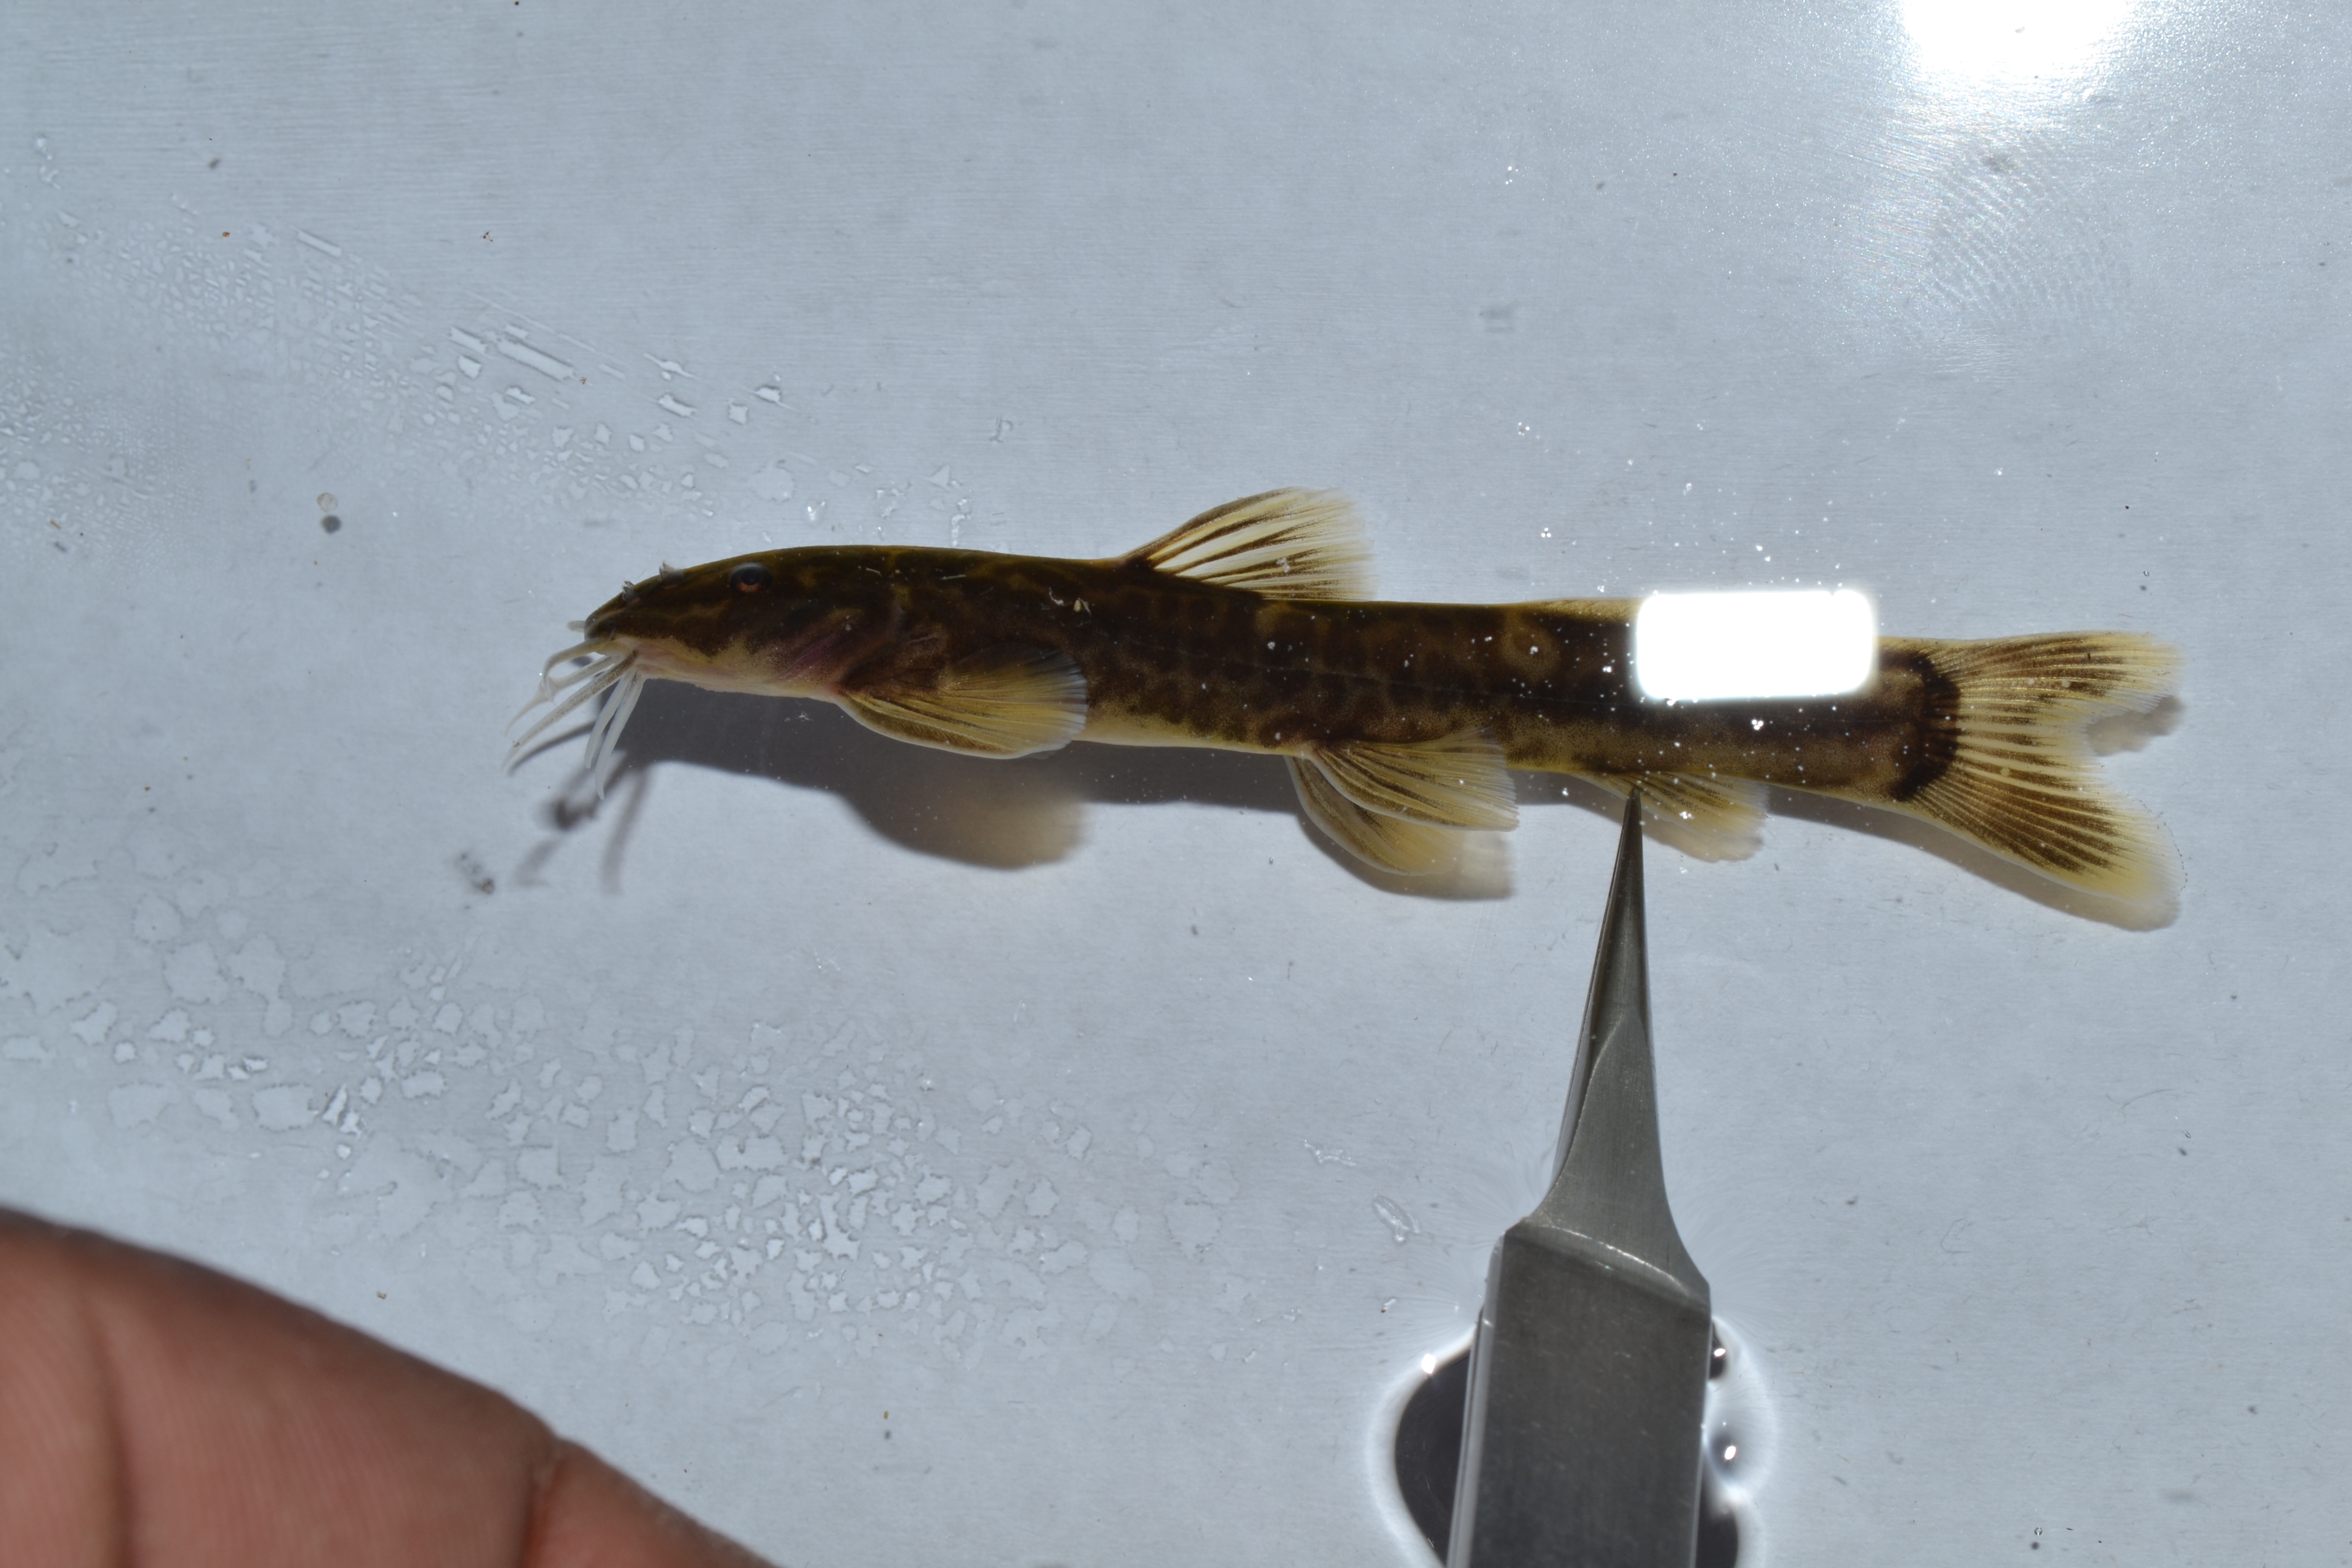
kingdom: Animalia
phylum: Chordata
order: Siluriformes
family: Amphiliidae
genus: Amphilius
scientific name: Amphilius uranoscopus
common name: Stargazer mountain catfish
